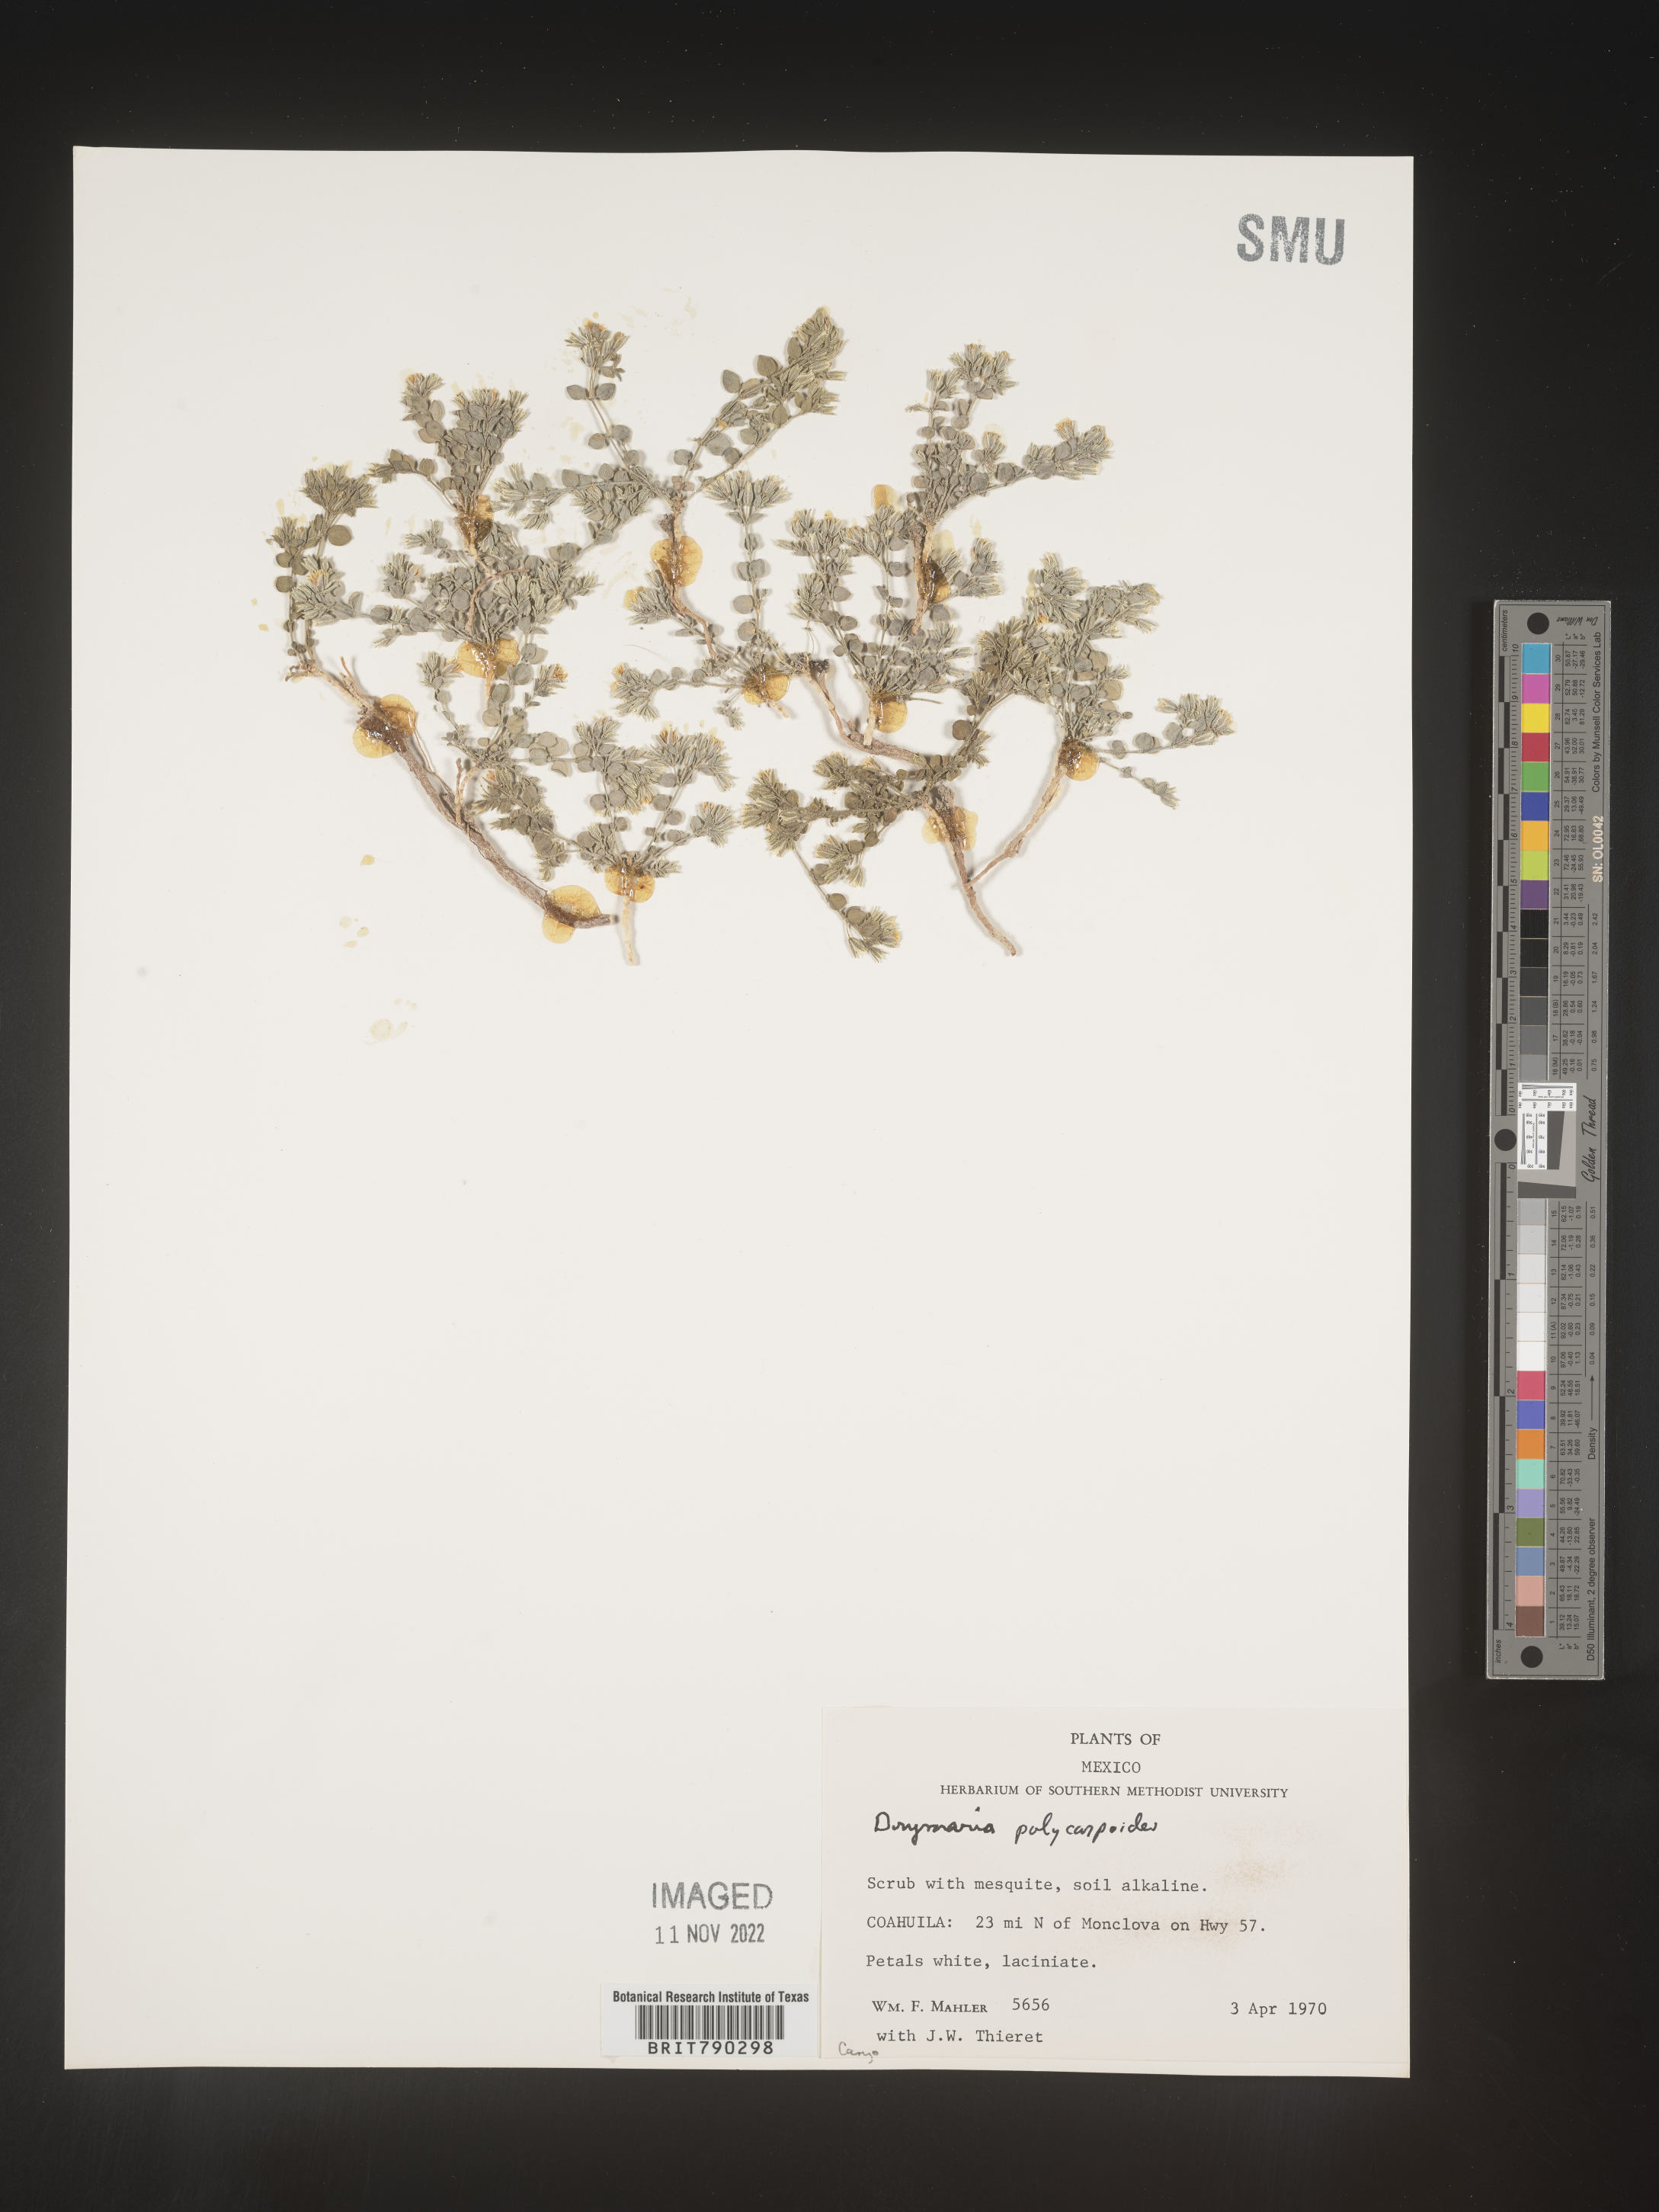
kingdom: Plantae
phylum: Tracheophyta
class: Magnoliopsida
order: Caryophyllales
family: Caryophyllaceae
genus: Drymaria
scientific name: Drymaria
